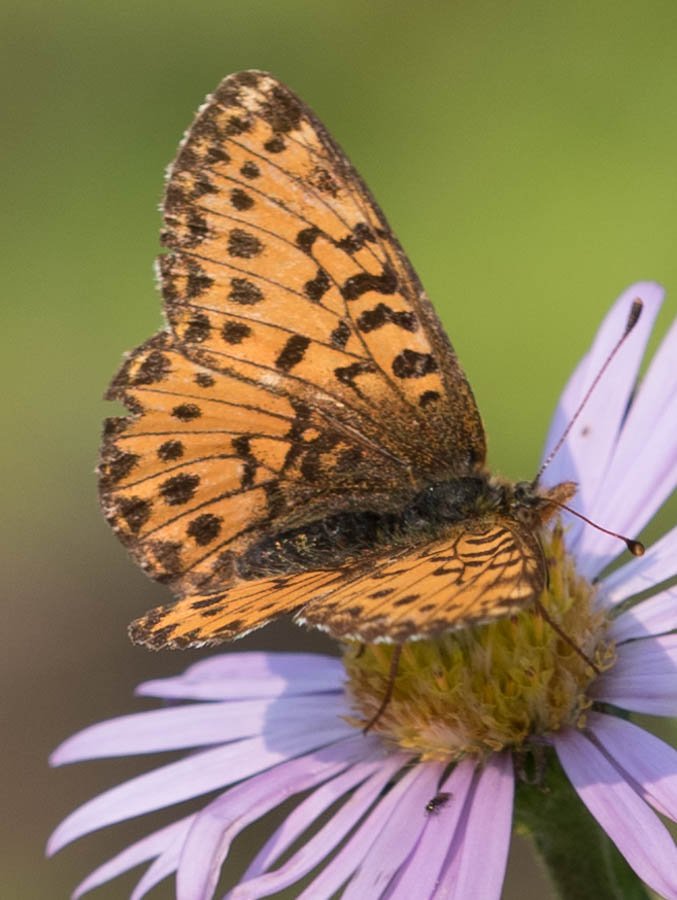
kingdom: Animalia
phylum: Arthropoda
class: Insecta
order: Lepidoptera
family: Nymphalidae
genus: Boloria
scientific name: Boloria chariclea
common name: Arctic Fritillary
